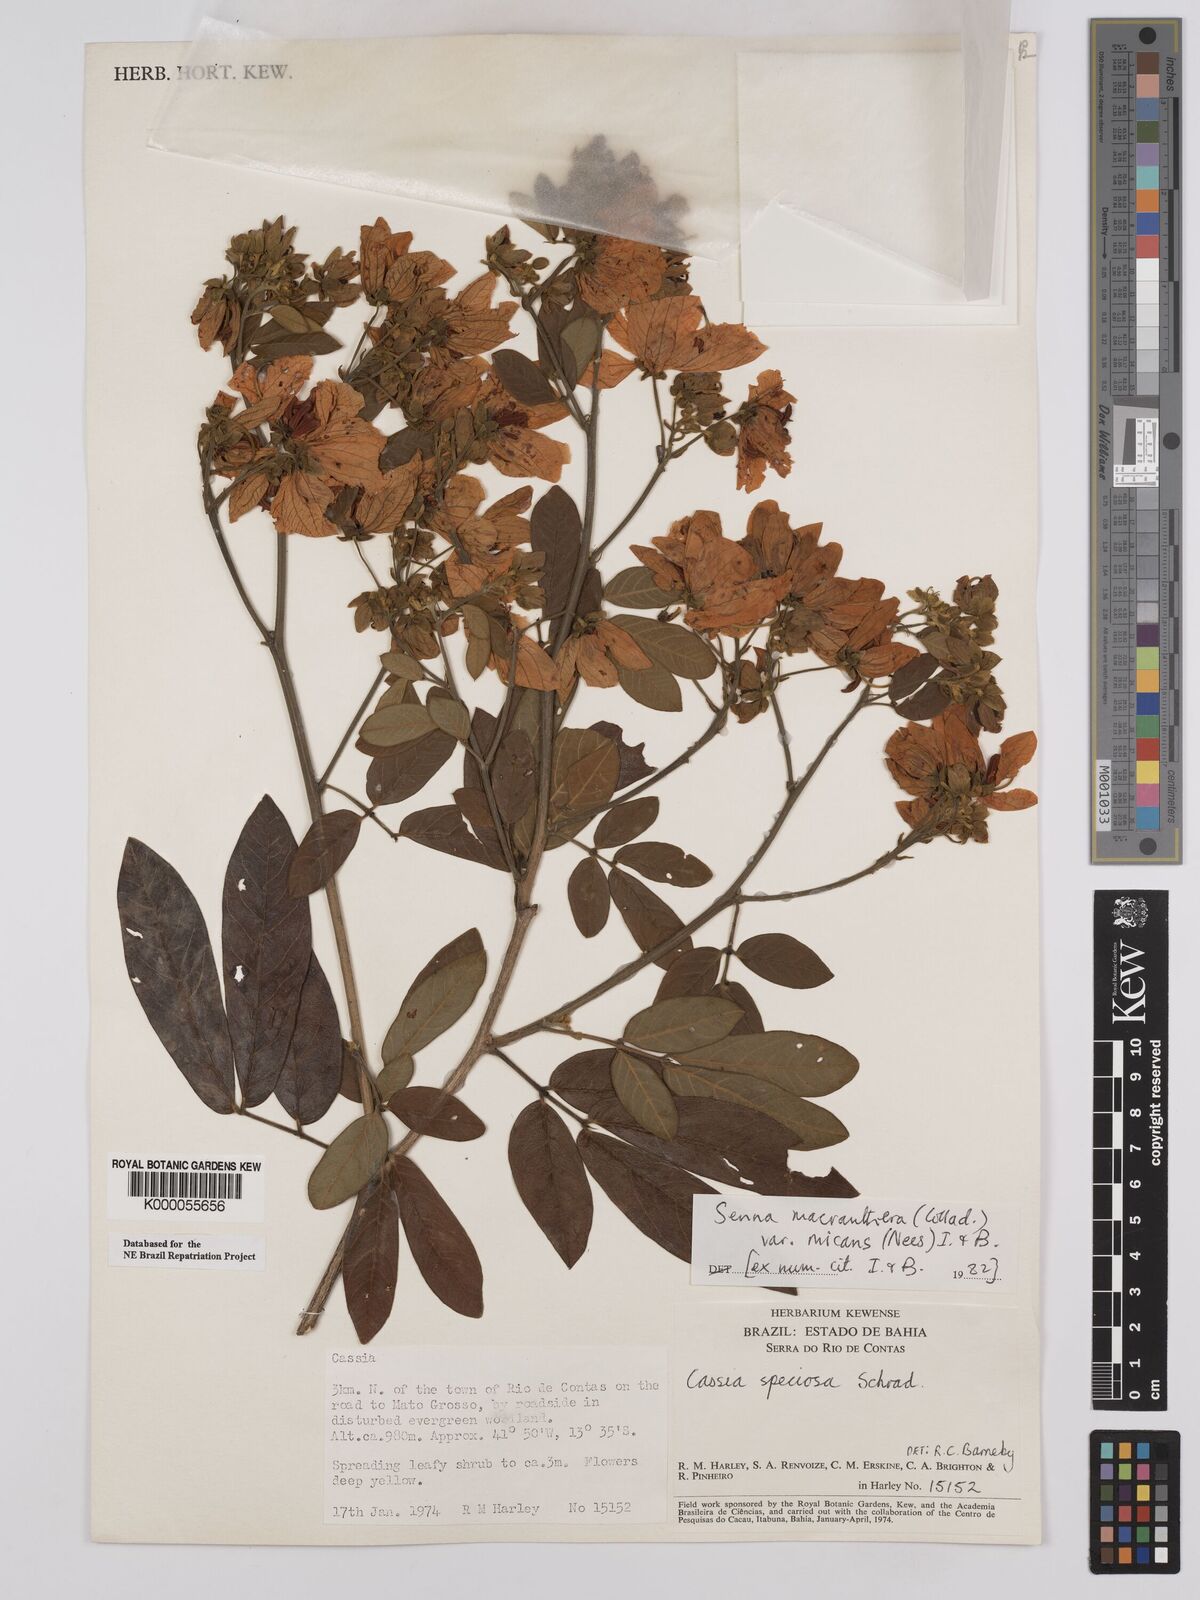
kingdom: Plantae
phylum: Tracheophyta
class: Magnoliopsida
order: Fabales
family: Fabaceae
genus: Senna
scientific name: Senna macranthera
